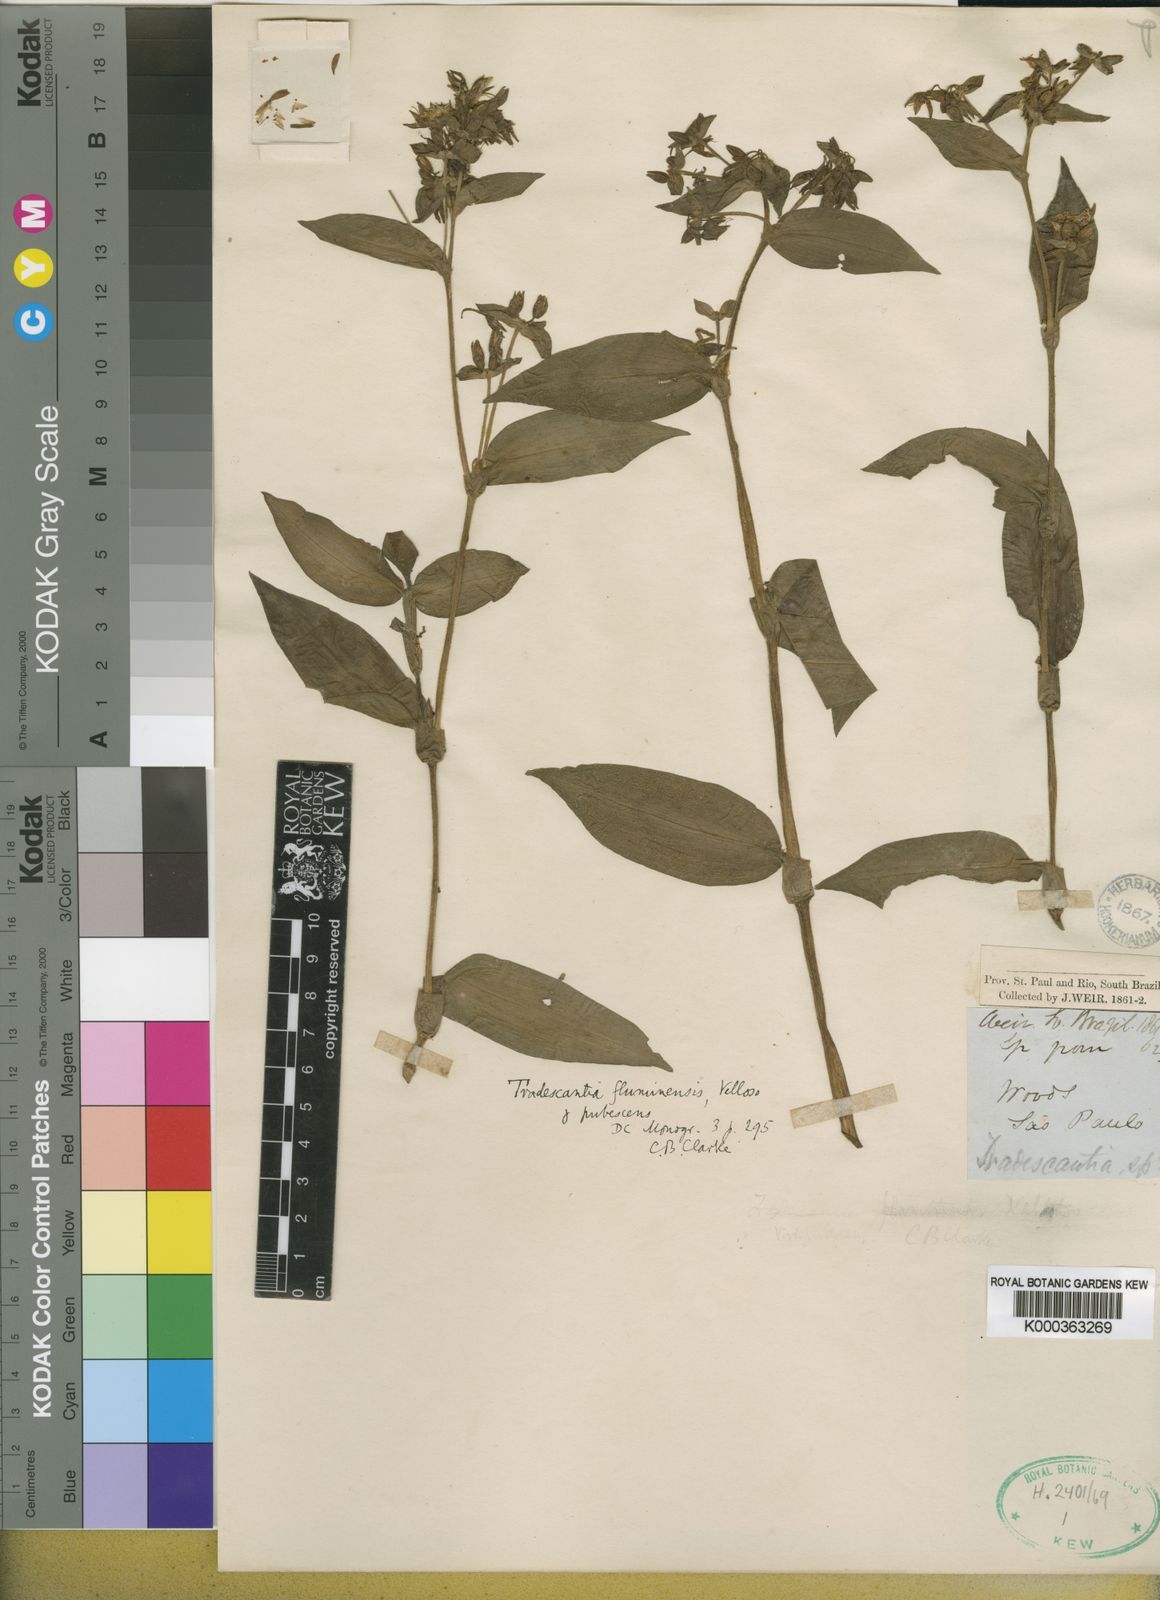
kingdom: Plantae
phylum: Tracheophyta
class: Liliopsida
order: Commelinales
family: Commelinaceae
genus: Tradescantia
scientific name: Tradescantia umbraculifera
